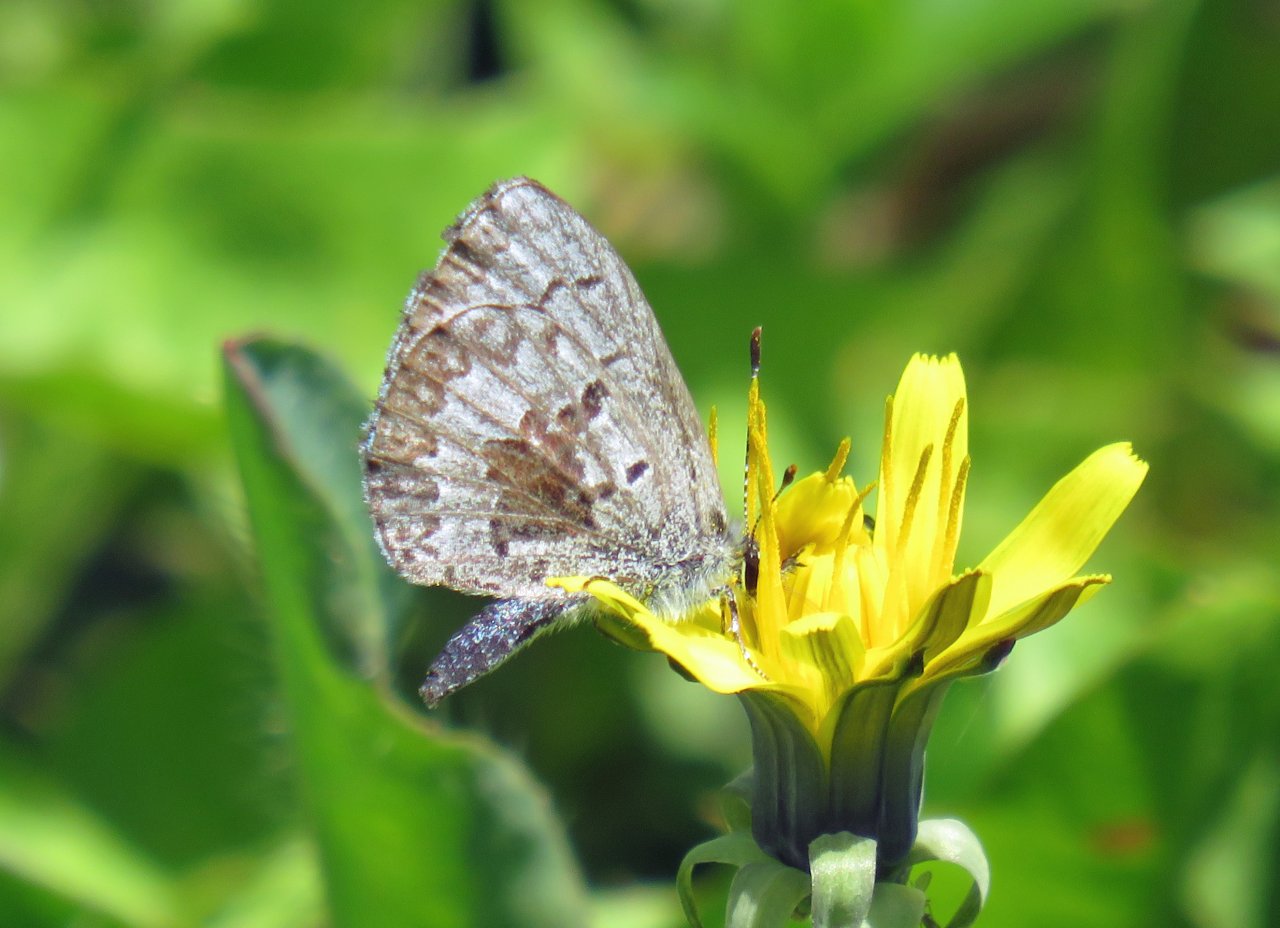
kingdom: Animalia
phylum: Arthropoda
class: Insecta
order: Lepidoptera
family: Lycaenidae
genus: Celastrina
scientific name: Celastrina lucia
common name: Northern Spring Azure
